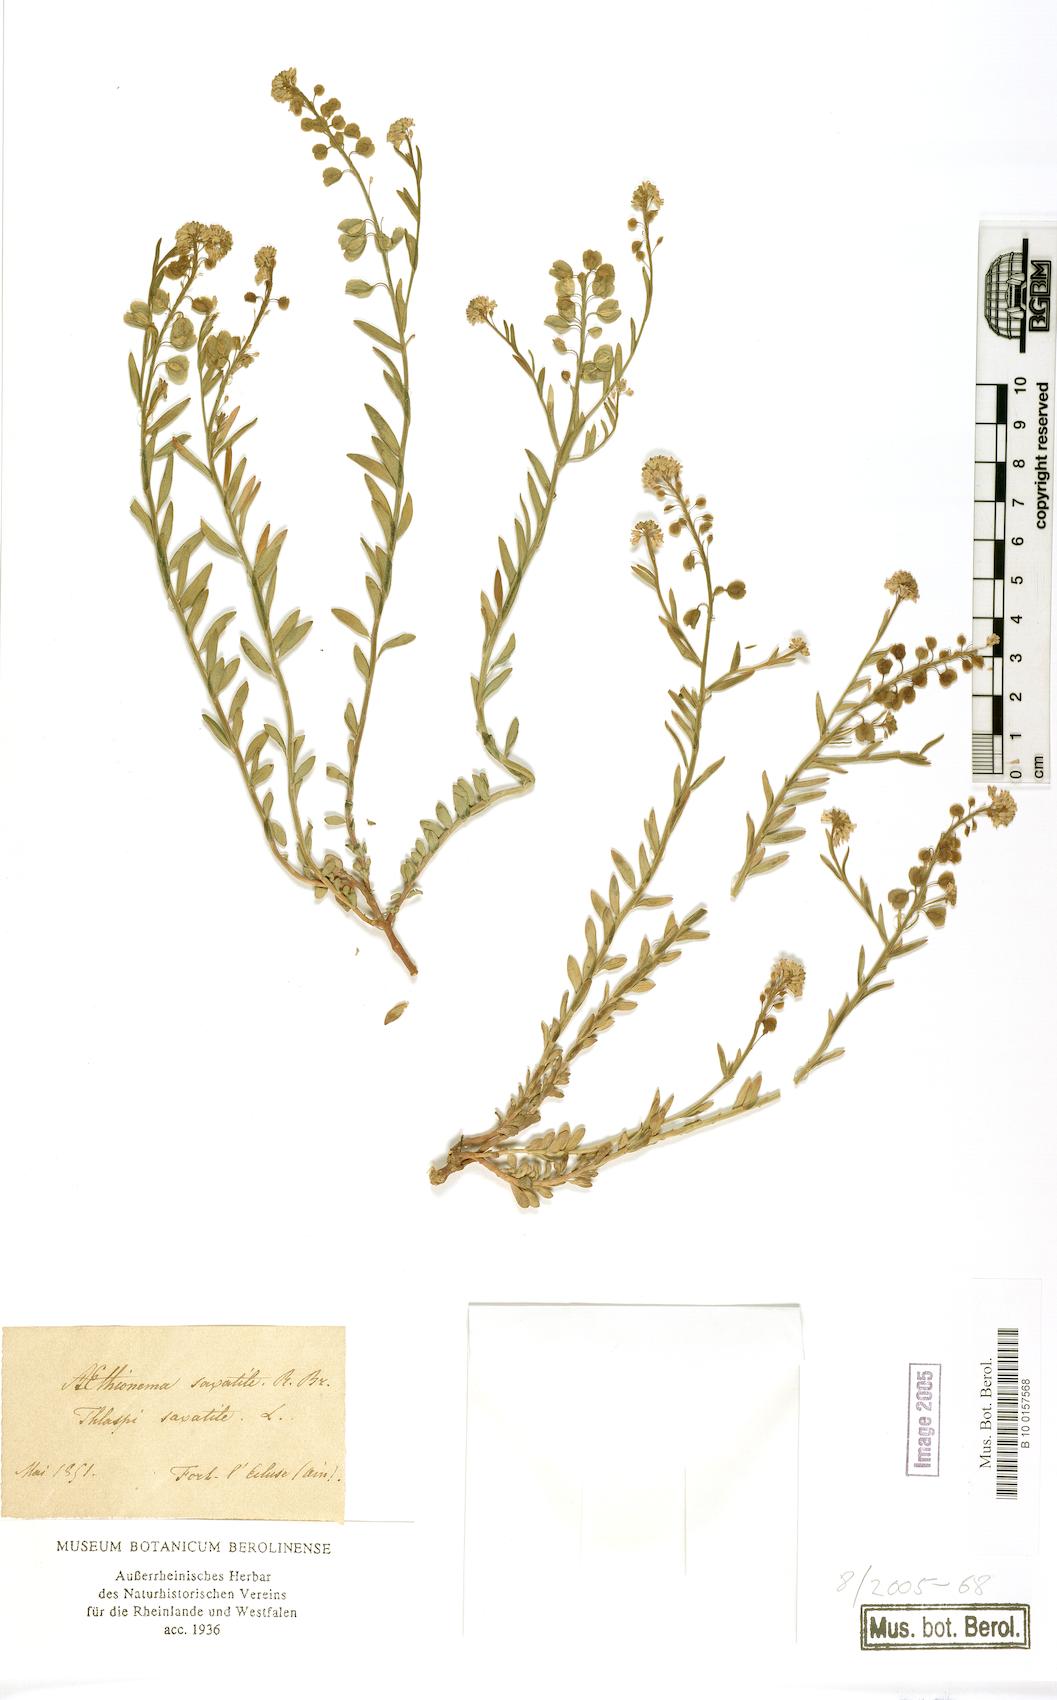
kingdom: Plantae
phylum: Tracheophyta
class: Magnoliopsida
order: Brassicales
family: Brassicaceae
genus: Aethionema
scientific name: Aethionema saxatile
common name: Burnt candytuft
